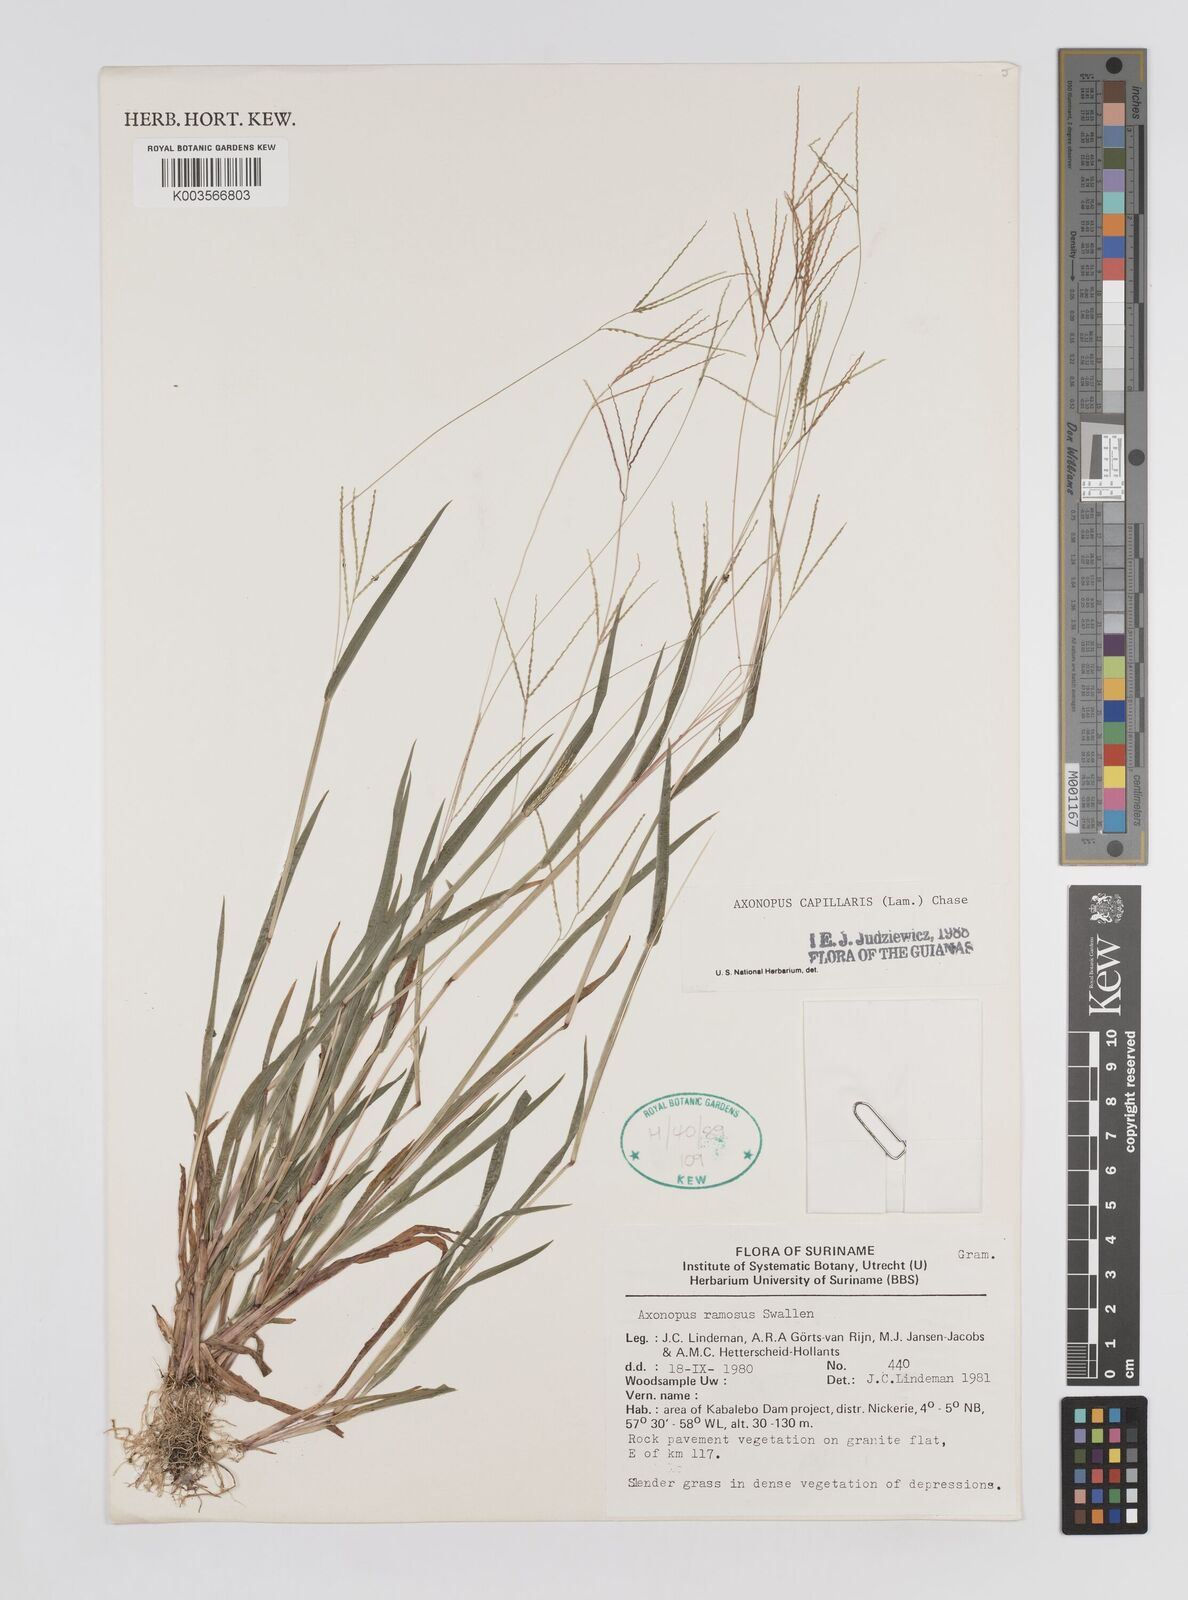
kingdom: Plantae
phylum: Tracheophyta
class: Liliopsida
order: Poales
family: Poaceae
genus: Axonopus
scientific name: Axonopus capillaris
